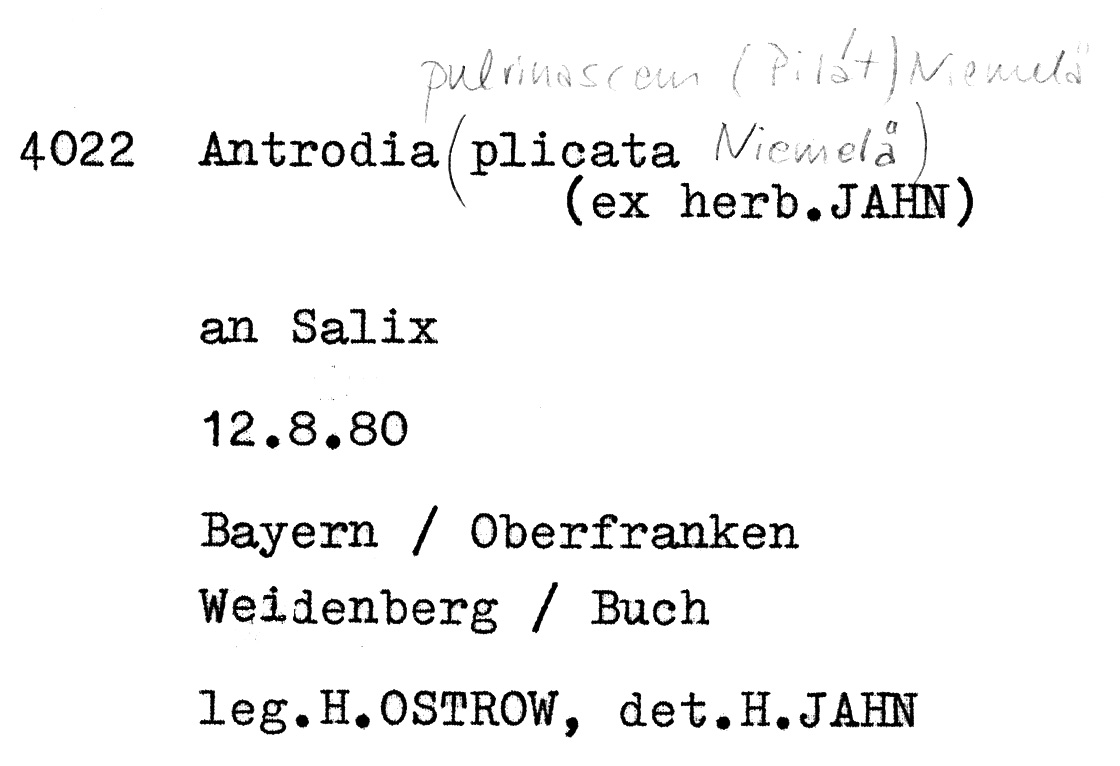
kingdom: Fungi
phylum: Basidiomycota
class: Agaricomycetes
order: Polyporales
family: Fomitopsidaceae
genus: Flavidoporia
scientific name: Flavidoporia pulvinascens
